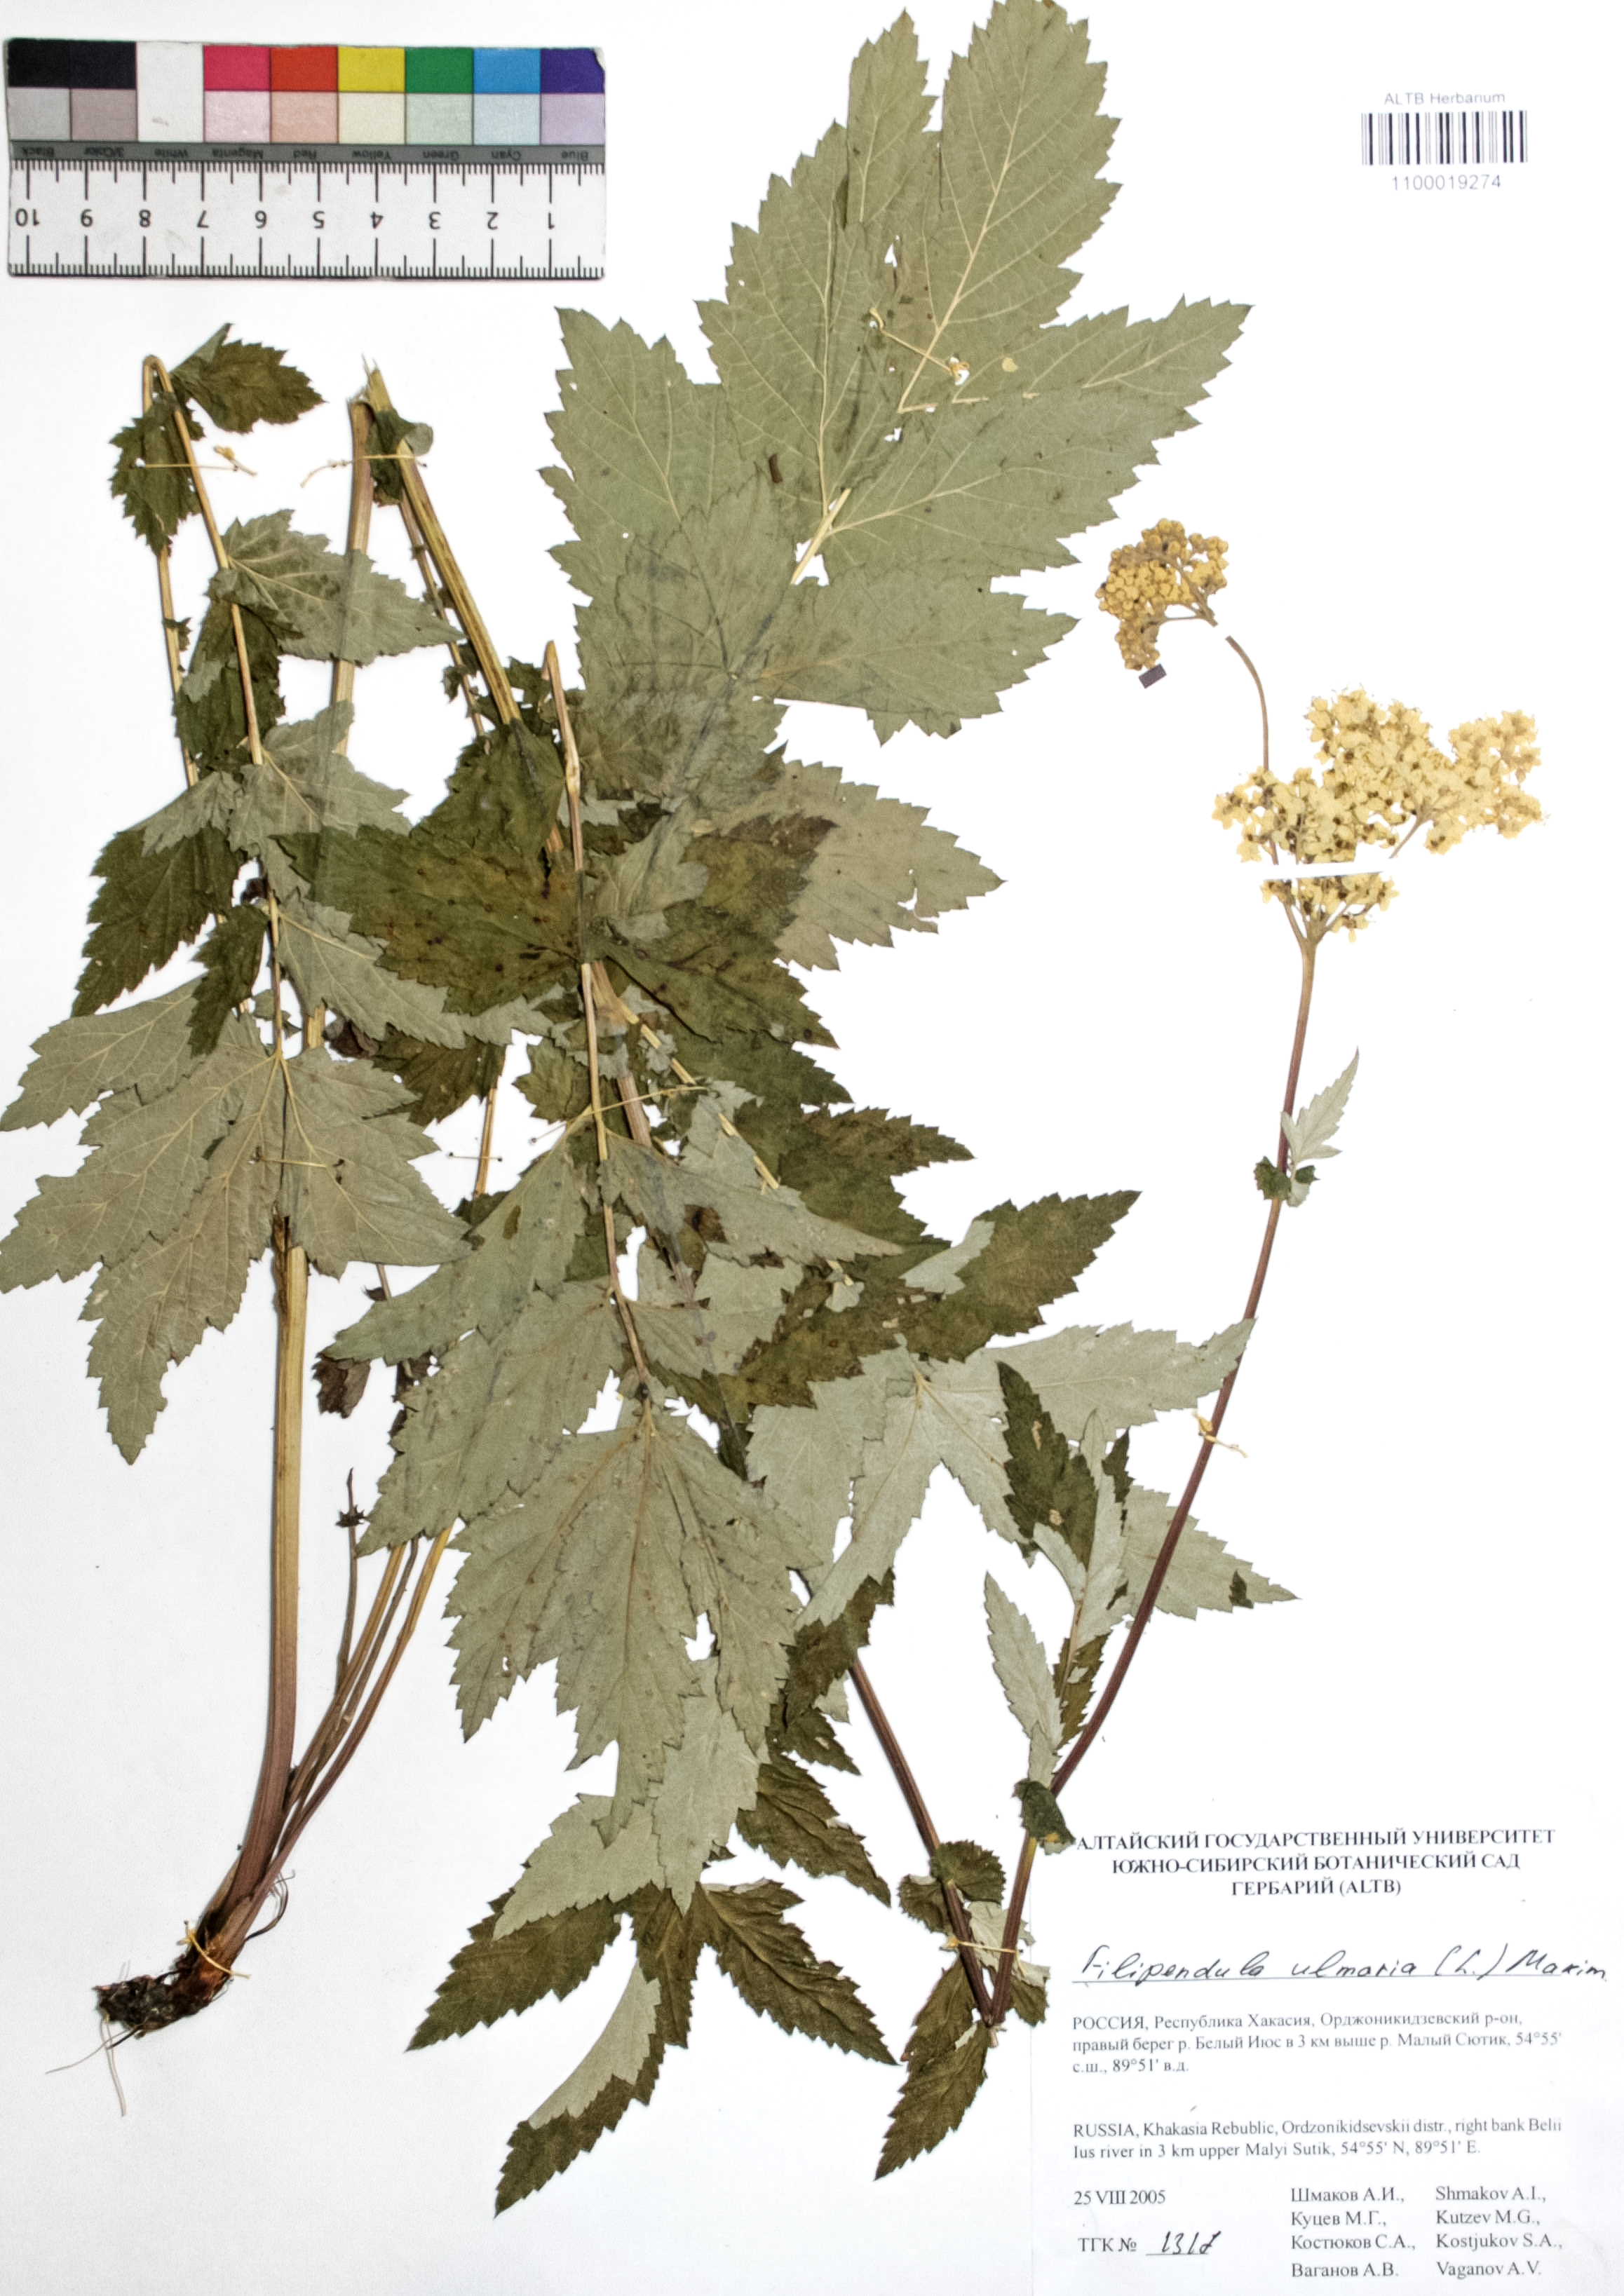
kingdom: Plantae
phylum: Tracheophyta
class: Magnoliopsida
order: Rosales
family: Rosaceae
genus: Filipendula
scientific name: Filipendula ulmaria
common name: Meadowsweet
